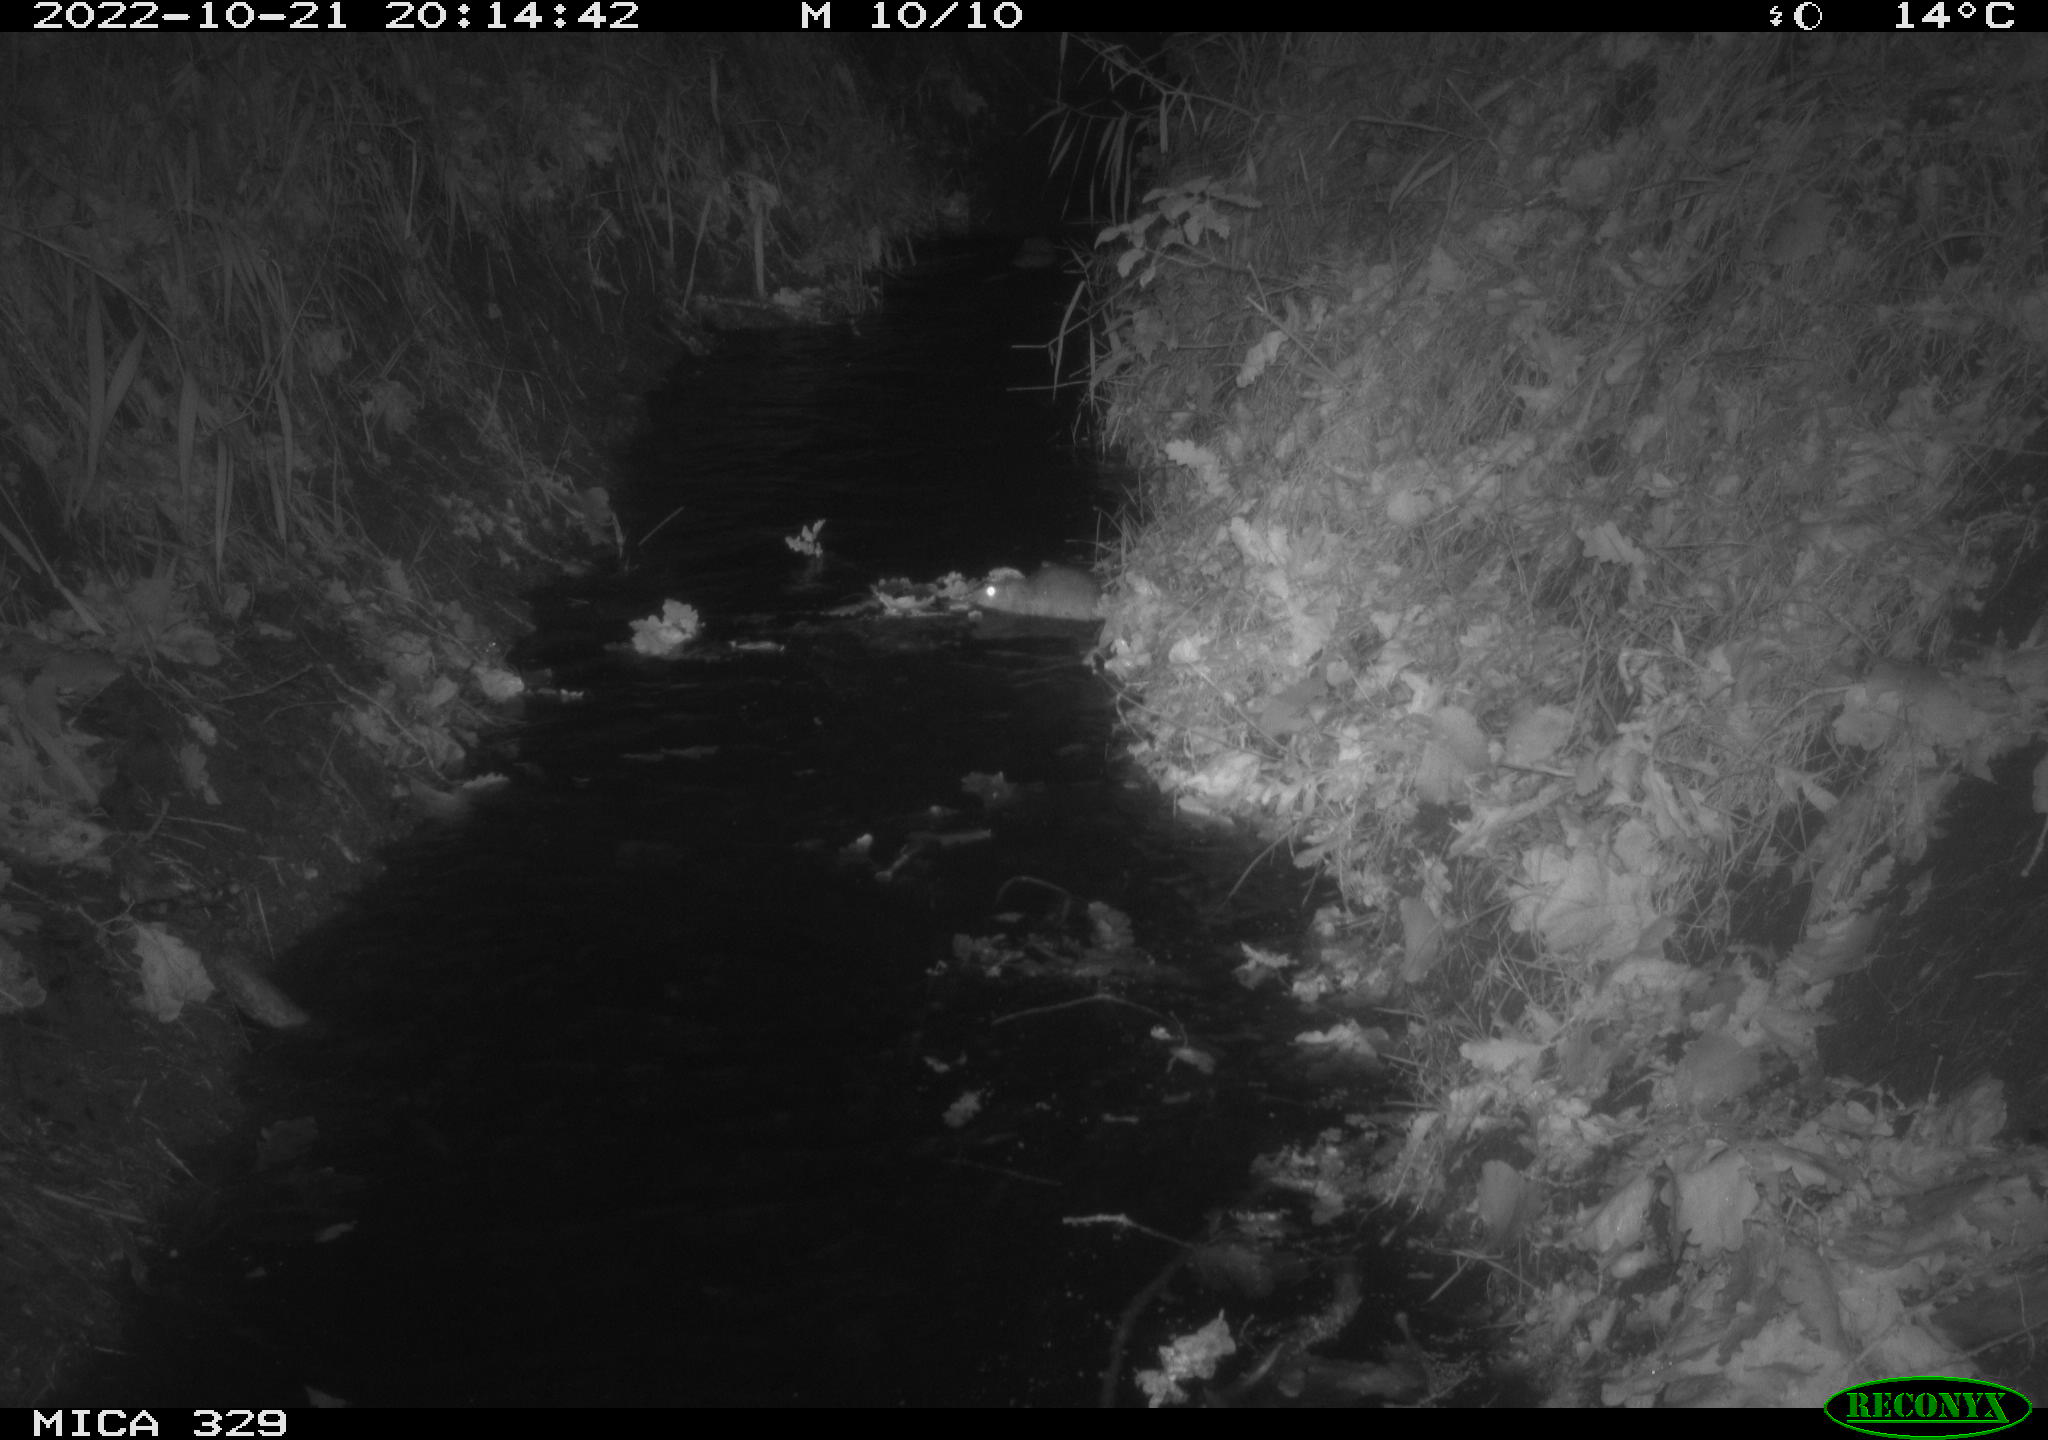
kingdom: Animalia
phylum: Chordata
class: Mammalia
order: Rodentia
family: Cricetidae
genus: Ondatra
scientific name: Ondatra zibethicus
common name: Muskrat
